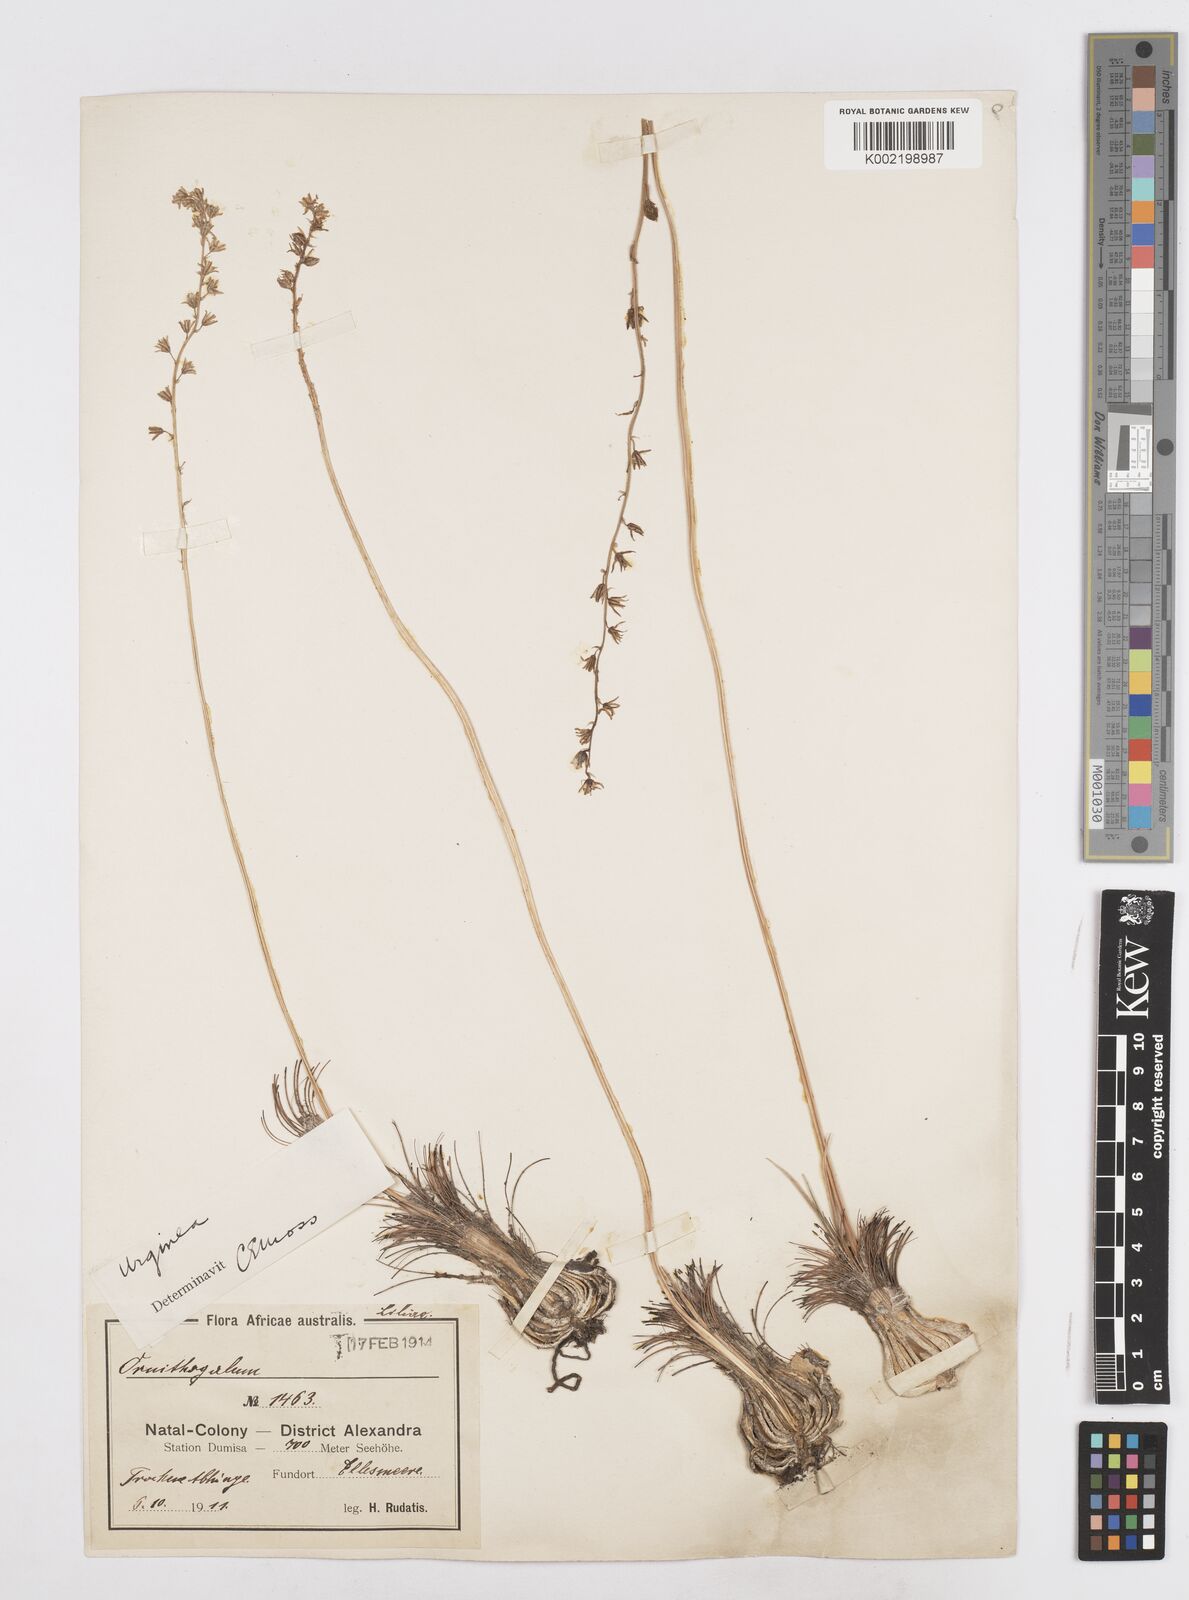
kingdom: Plantae
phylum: Tracheophyta
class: Liliopsida
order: Asparagales
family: Asparagaceae
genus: Drimia
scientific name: Drimia
